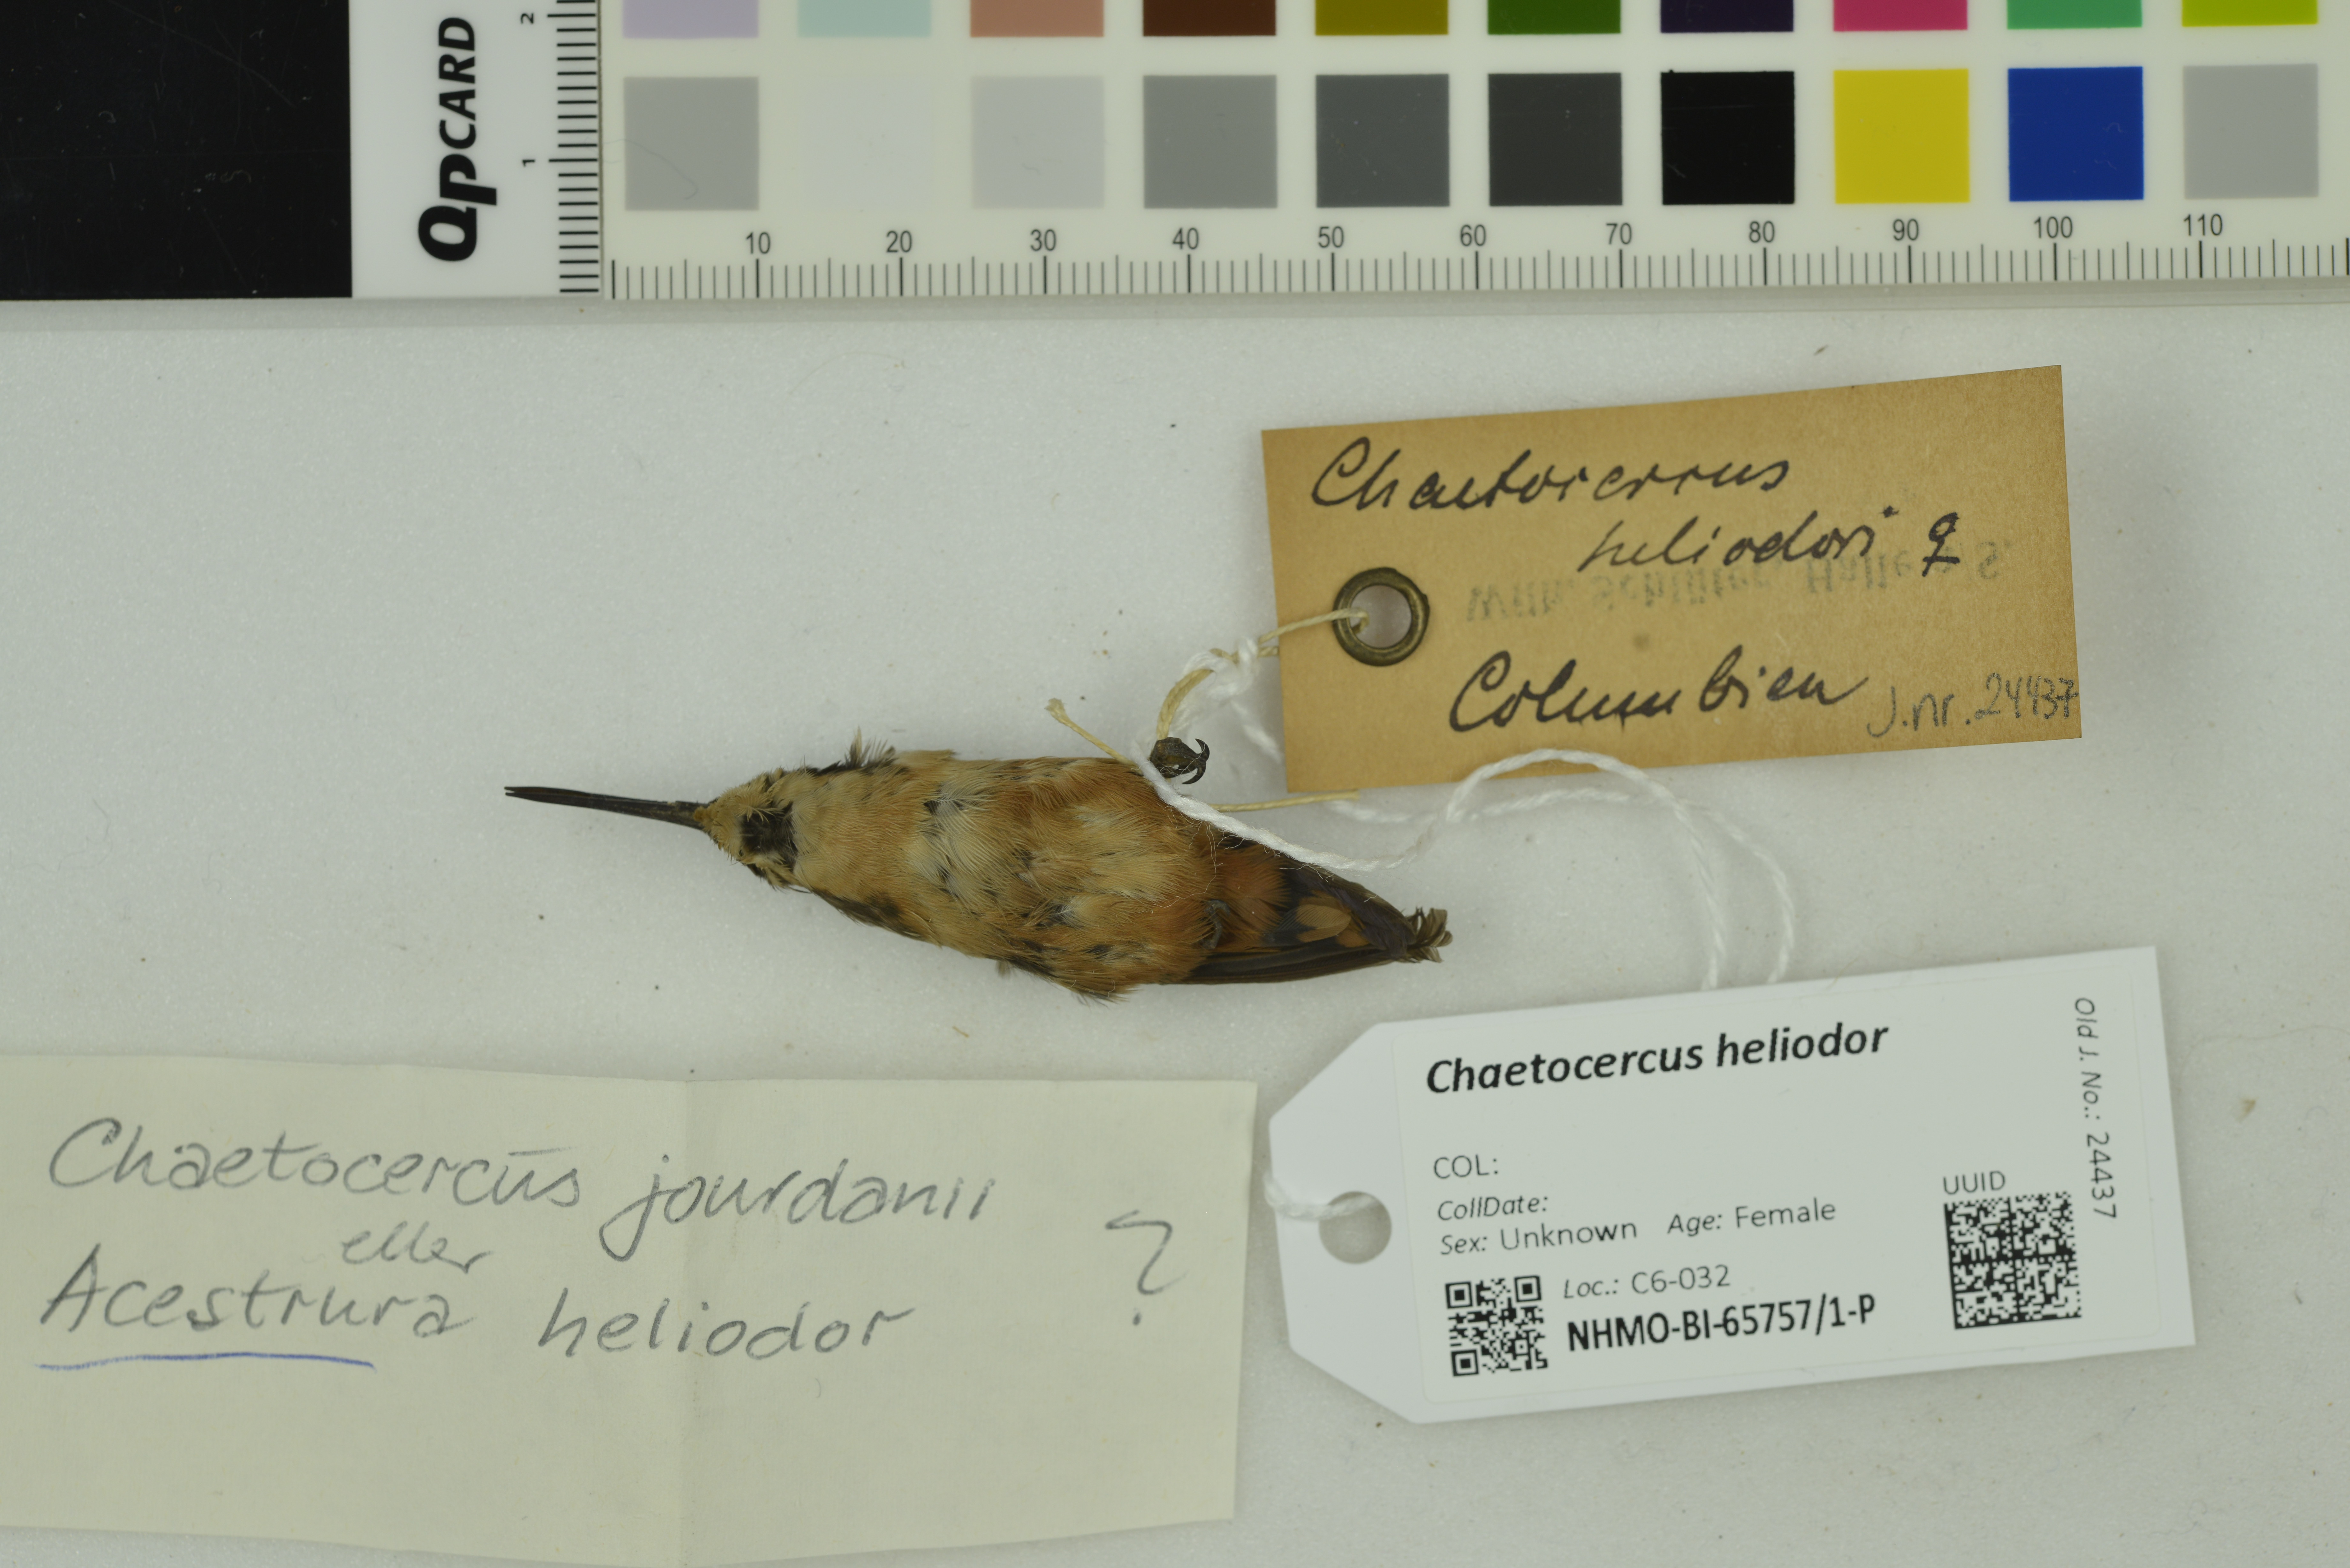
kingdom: Animalia
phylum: Chordata
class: Aves
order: Apodiformes
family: Trochilidae
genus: Chaetocercus
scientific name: Chaetocercus heliodor
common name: Gorgeted woodstar
